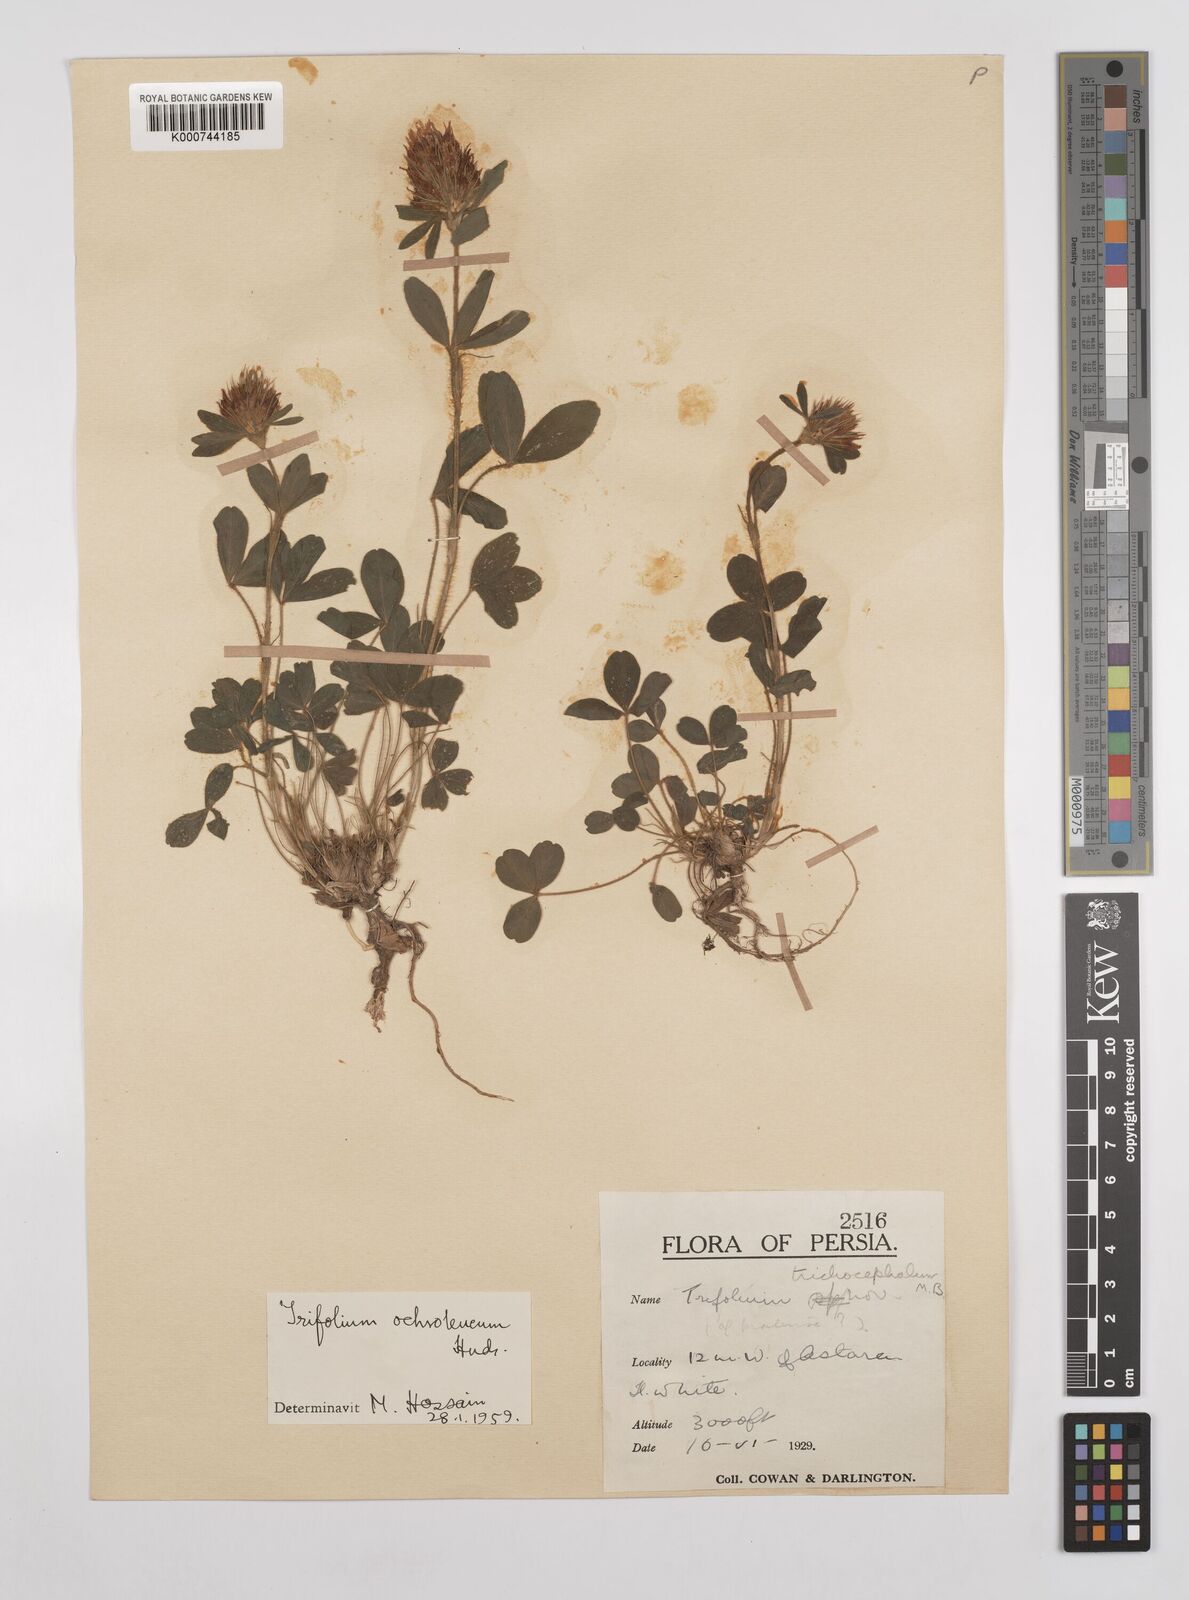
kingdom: Plantae
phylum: Tracheophyta
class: Magnoliopsida
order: Fabales
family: Fabaceae
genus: Trifolium
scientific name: Trifolium
